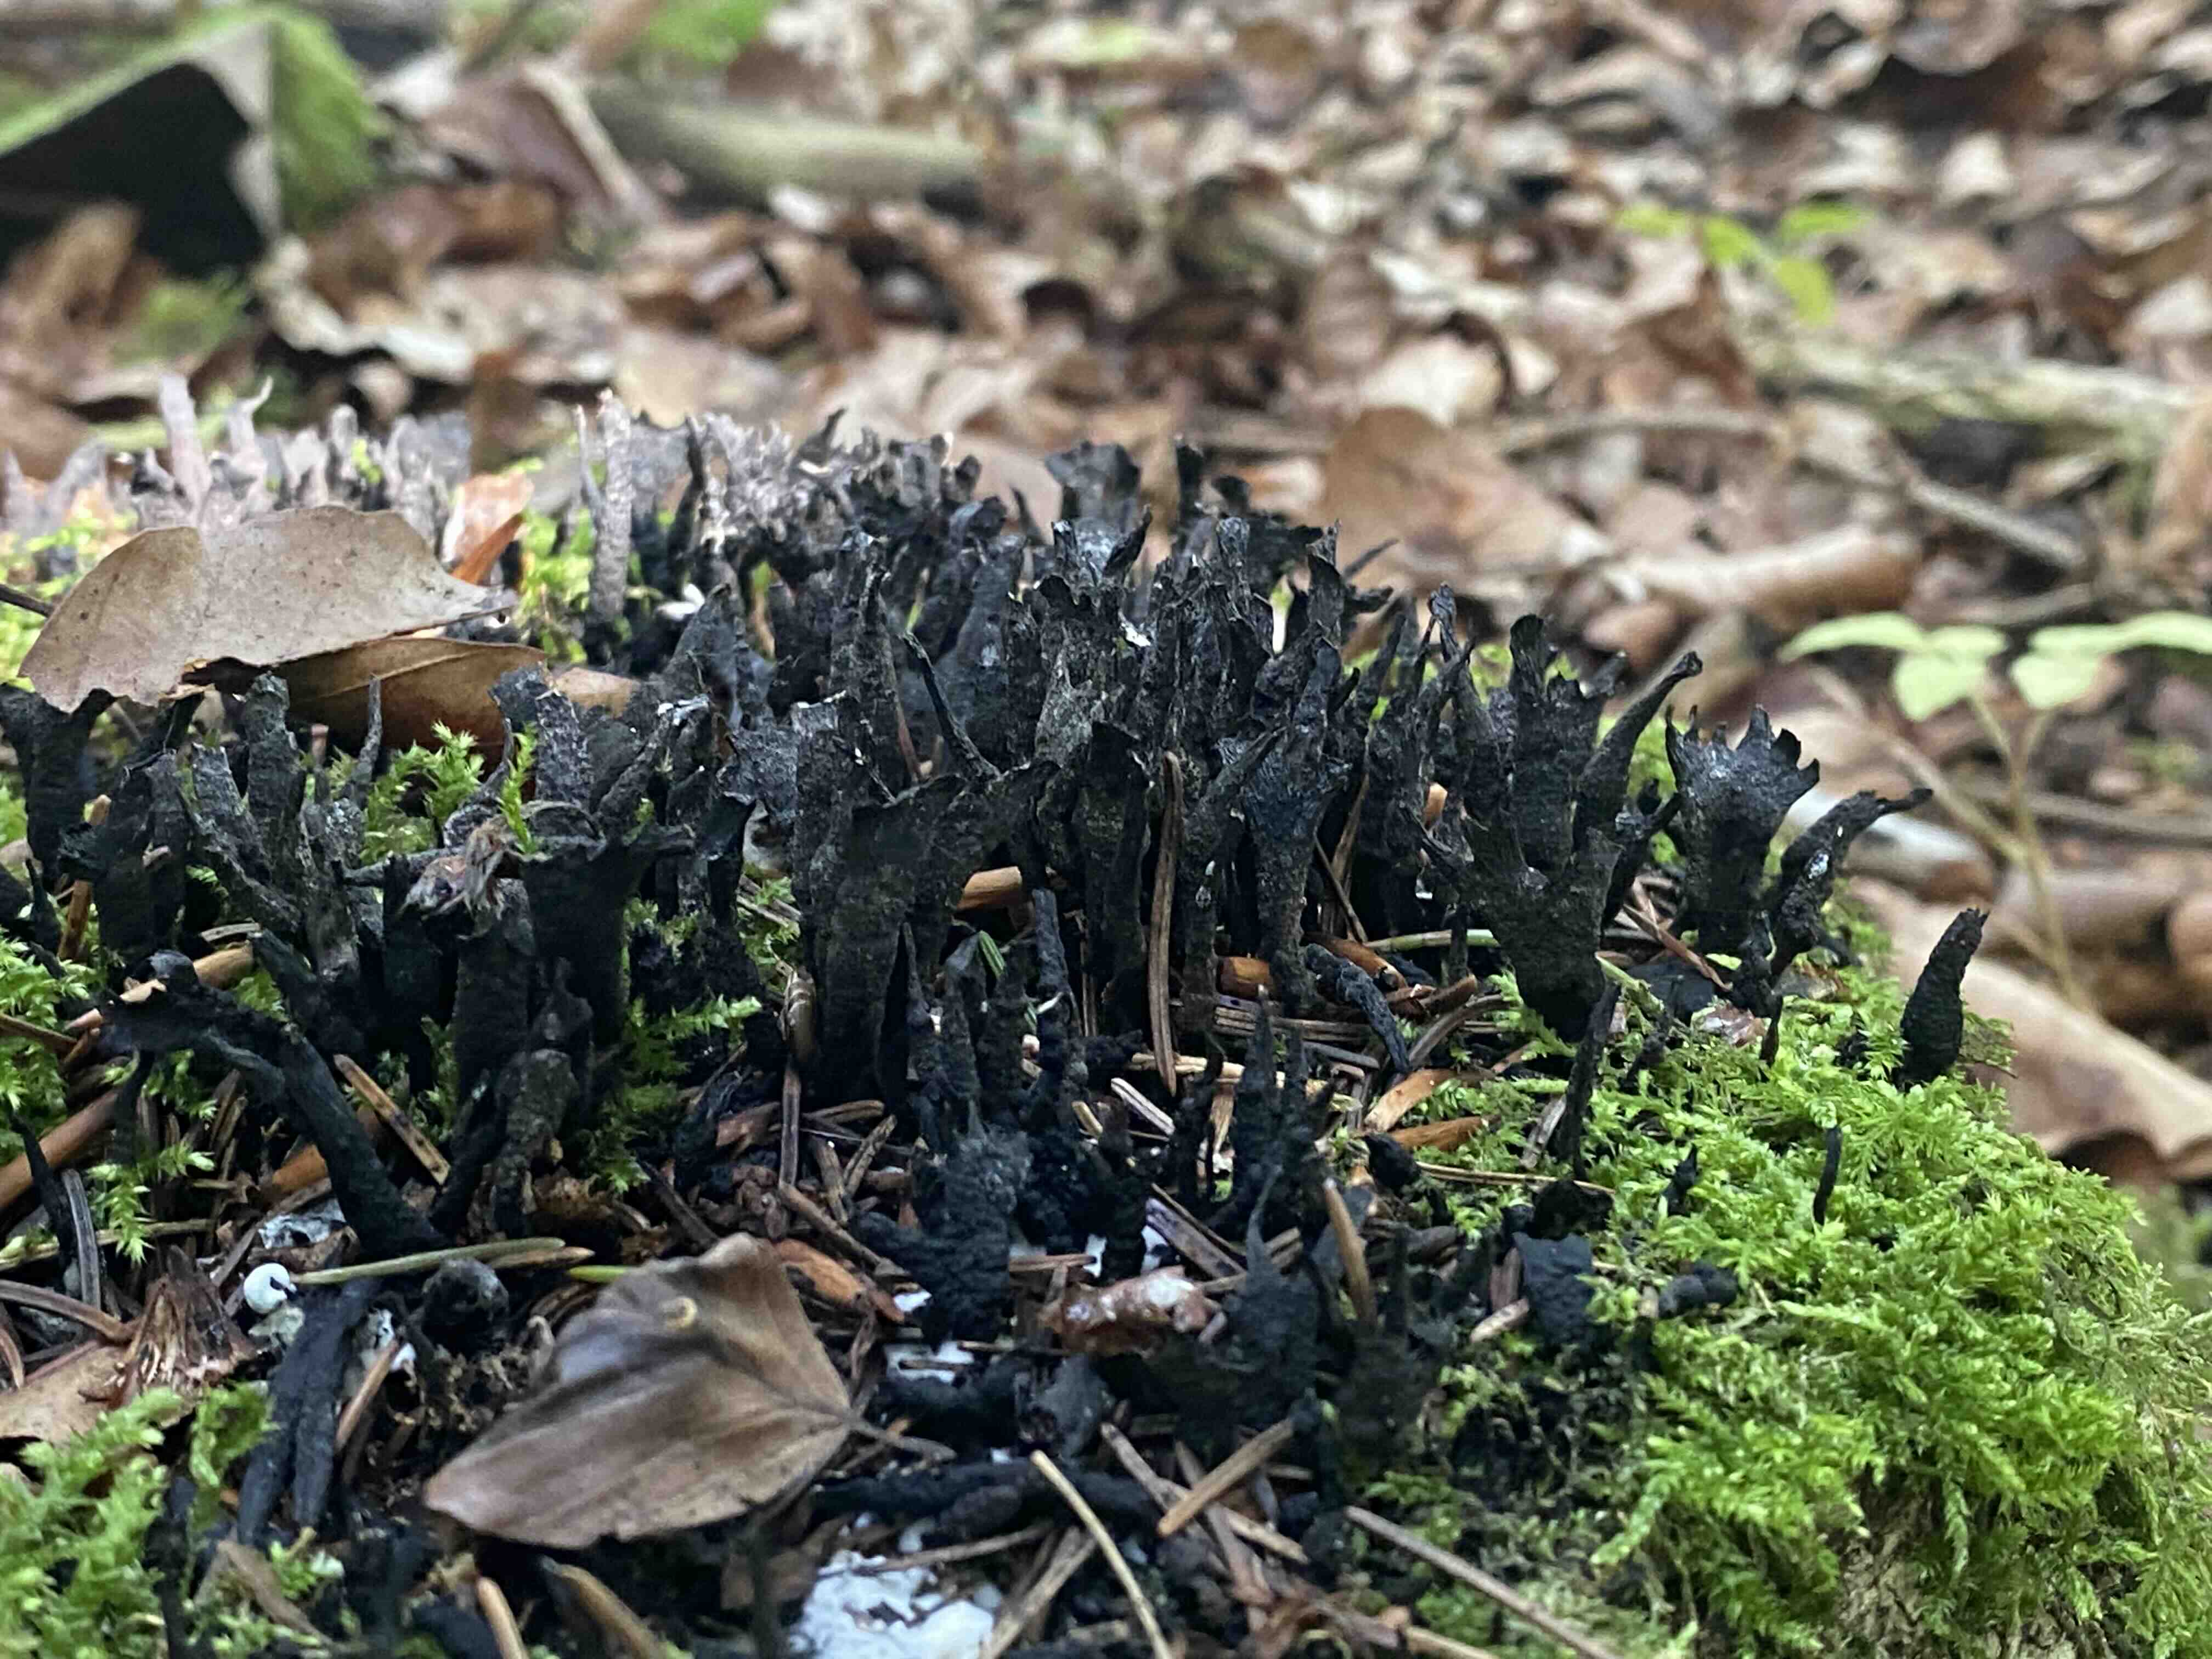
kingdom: Fungi
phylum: Ascomycota
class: Sordariomycetes
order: Xylariales
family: Xylariaceae
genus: Xylaria
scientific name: Xylaria hypoxylon
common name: grenet stødsvamp
